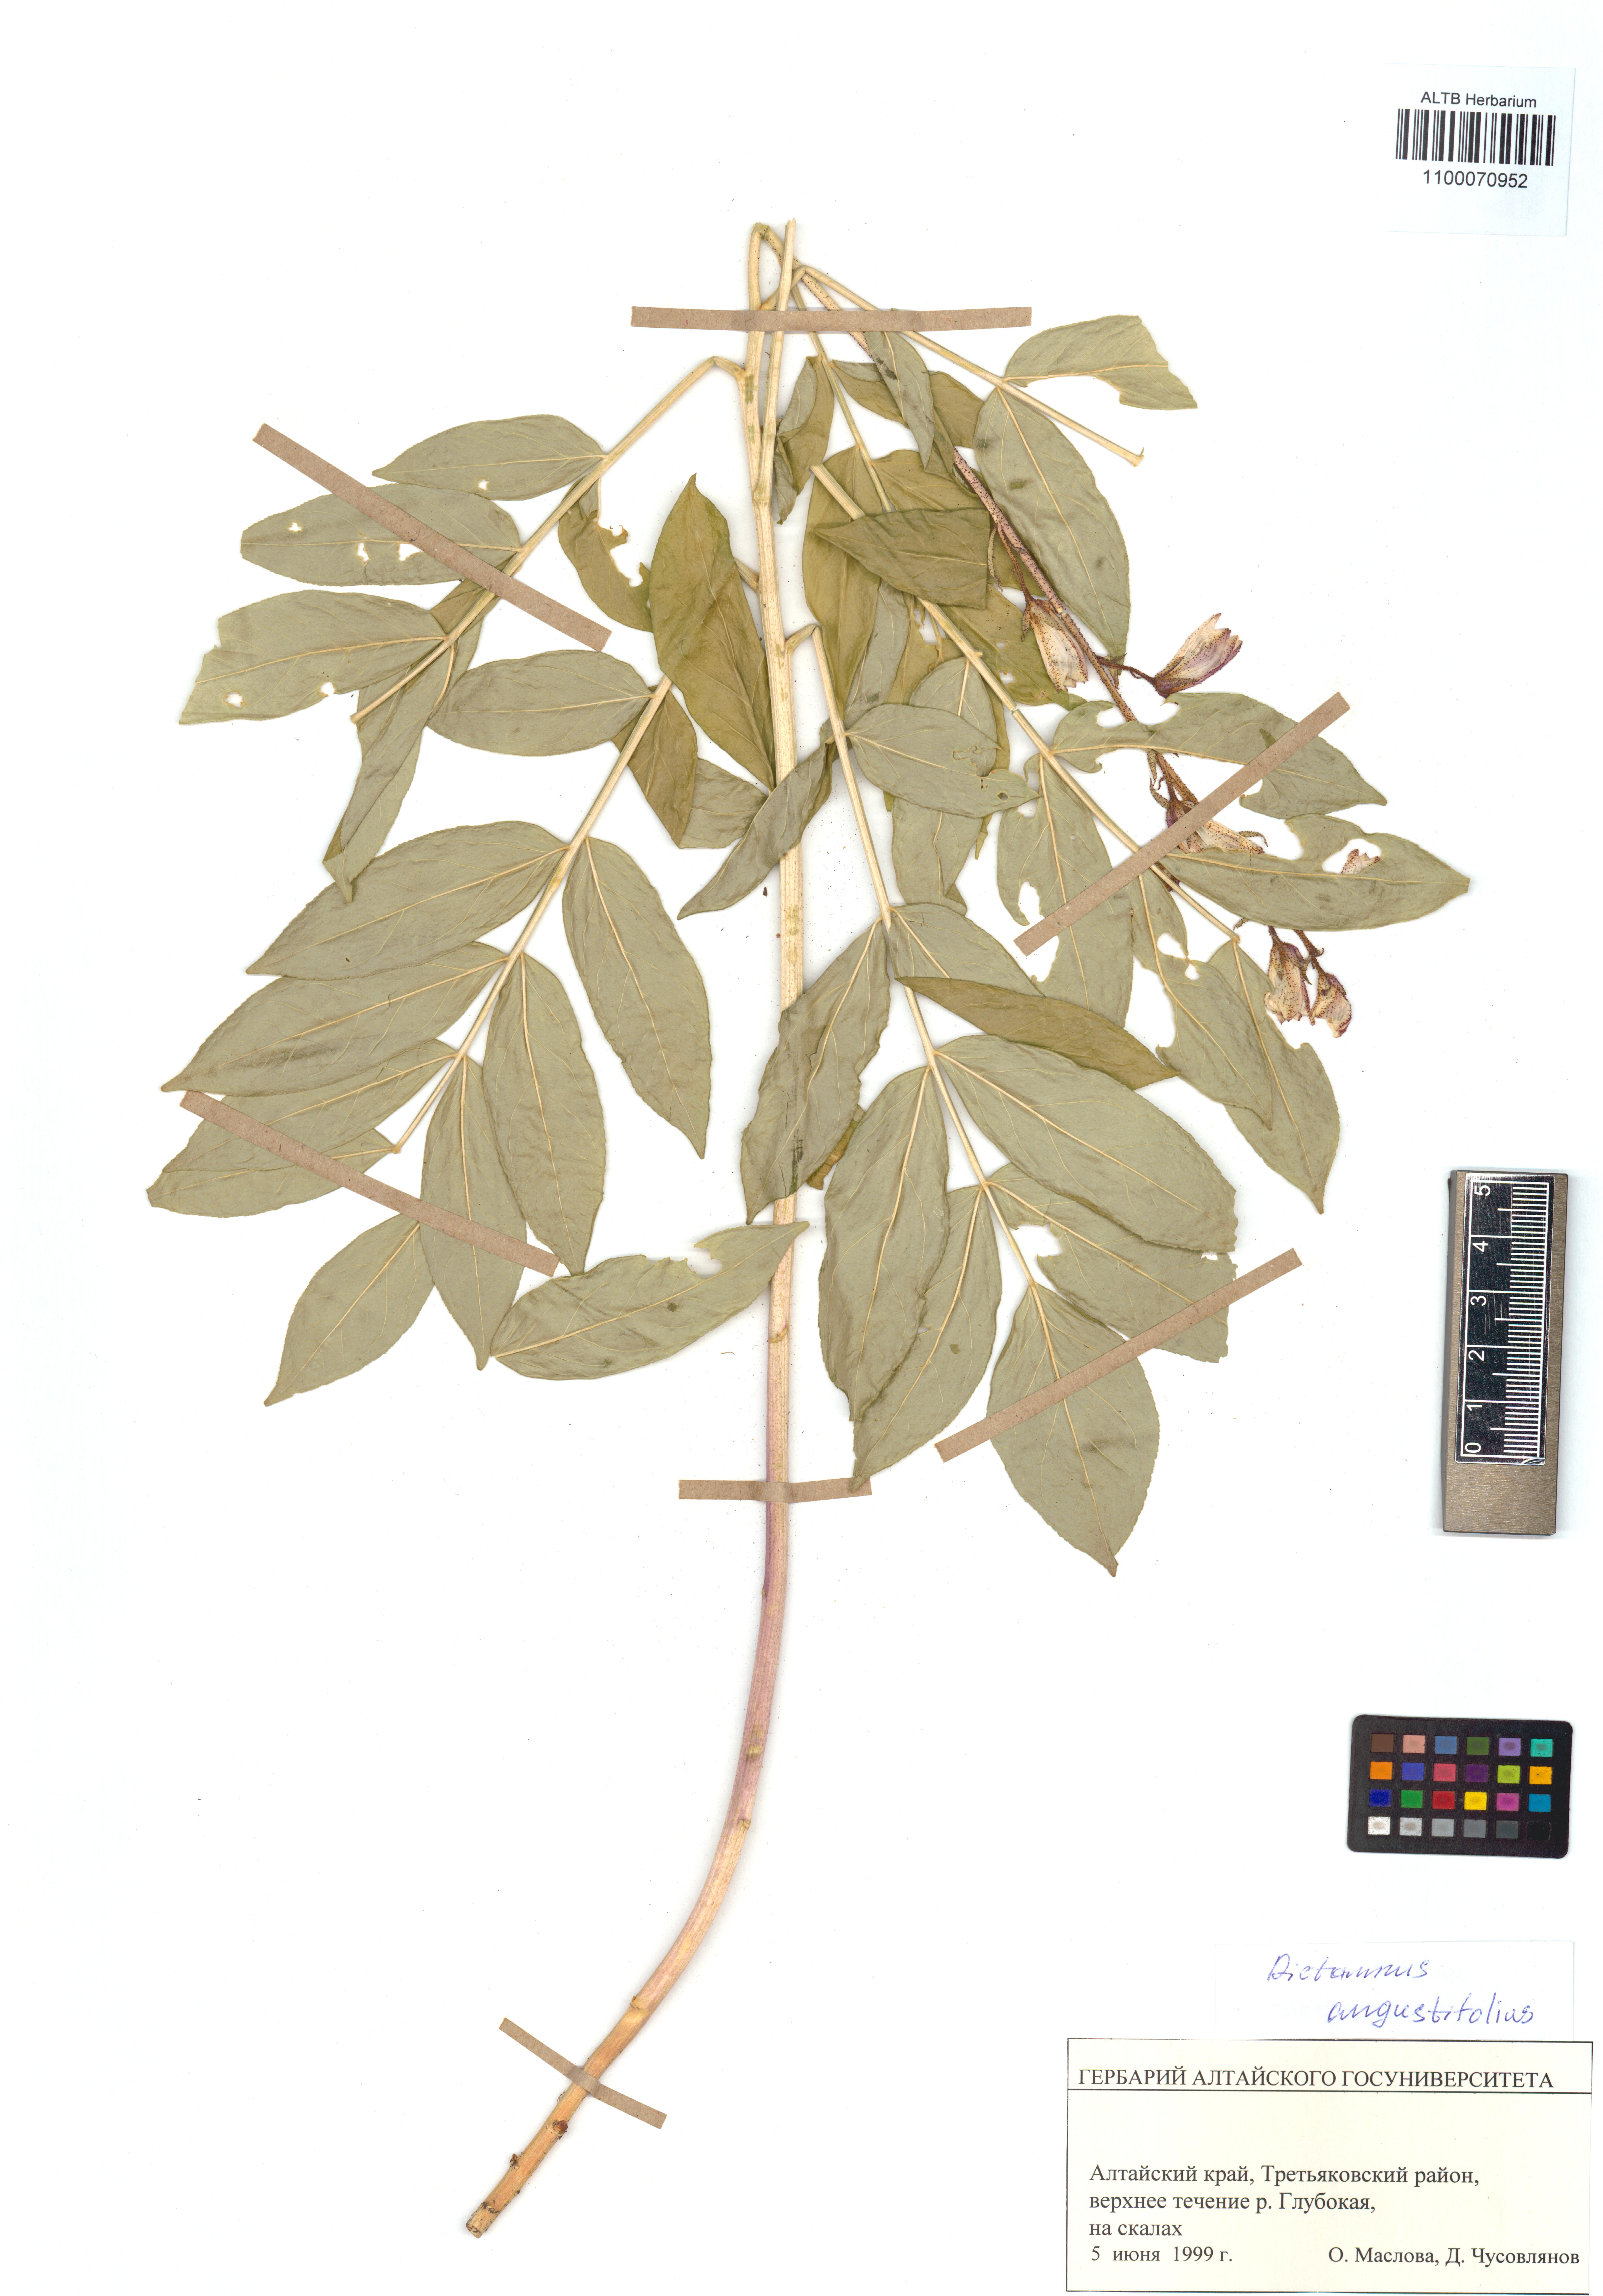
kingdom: Plantae
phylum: Tracheophyta
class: Magnoliopsida
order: Sapindales
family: Rutaceae
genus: Dictamnus
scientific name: Dictamnus albus
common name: Gasplant
